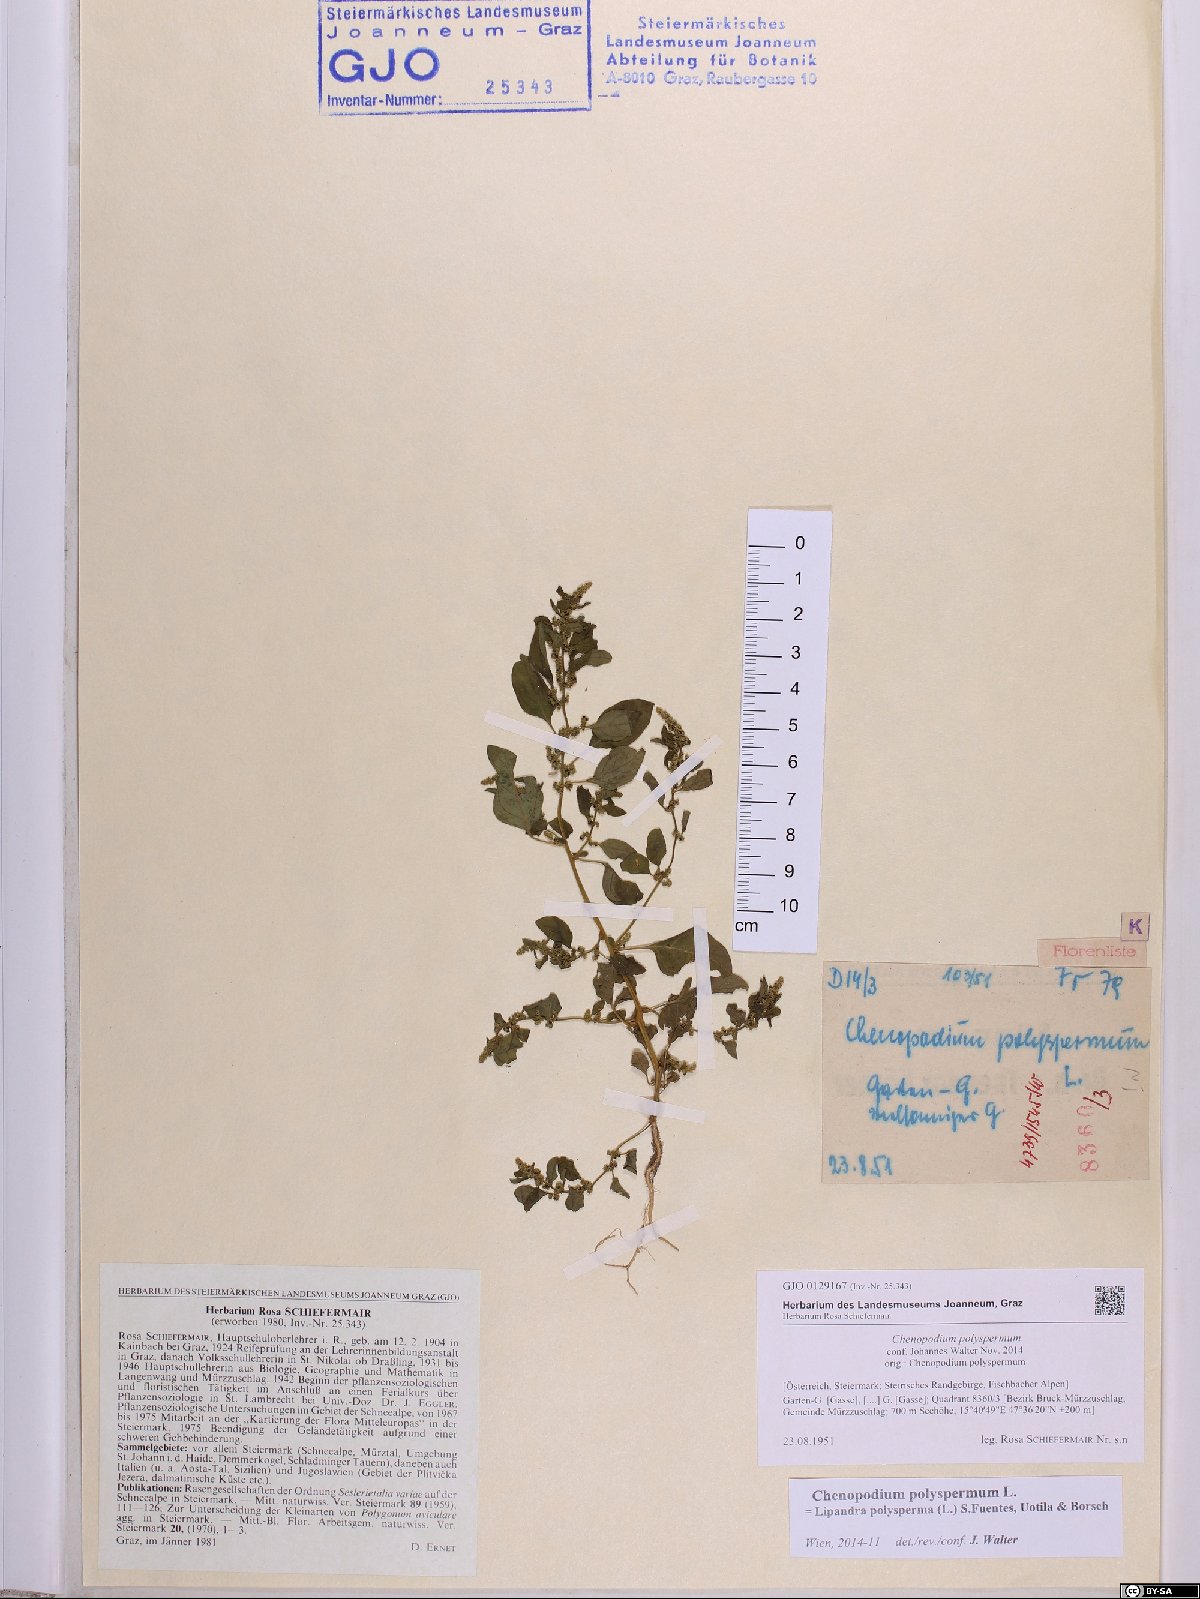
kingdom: Plantae
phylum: Tracheophyta
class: Magnoliopsida
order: Caryophyllales
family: Amaranthaceae
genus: Lipandra
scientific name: Lipandra polysperma
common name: Many-seed goosefoot
